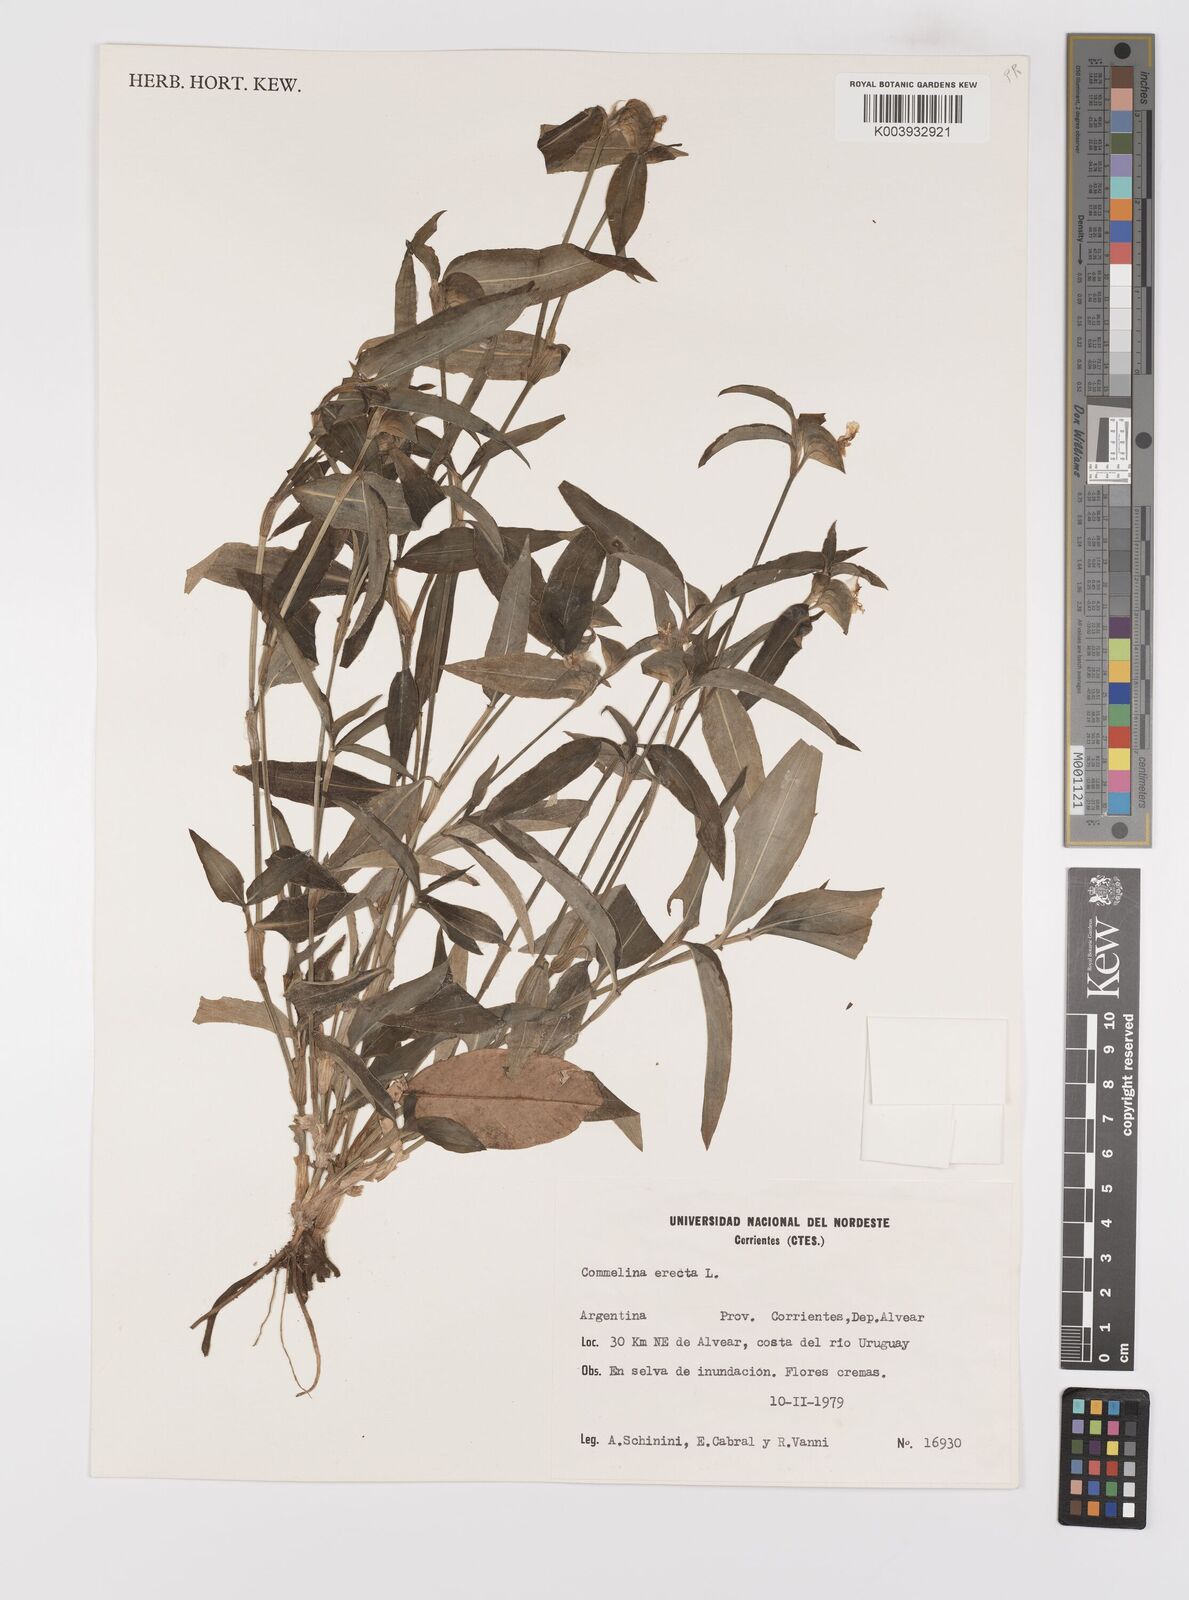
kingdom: Plantae
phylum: Tracheophyta
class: Liliopsida
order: Commelinales
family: Commelinaceae
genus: Commelina
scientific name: Commelina erecta
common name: Blousel blommetjie
